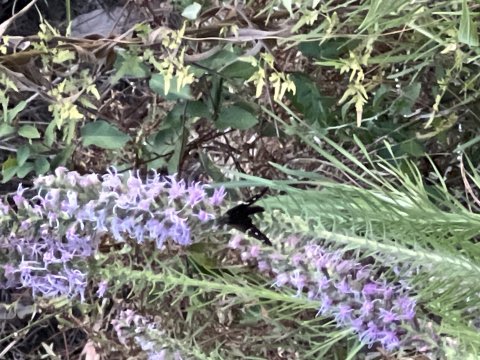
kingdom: Animalia
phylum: Arthropoda
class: Insecta
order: Lepidoptera
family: Hesperiidae
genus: Urbanus
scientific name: Urbanus proteus
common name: Long-tailed Skipper
